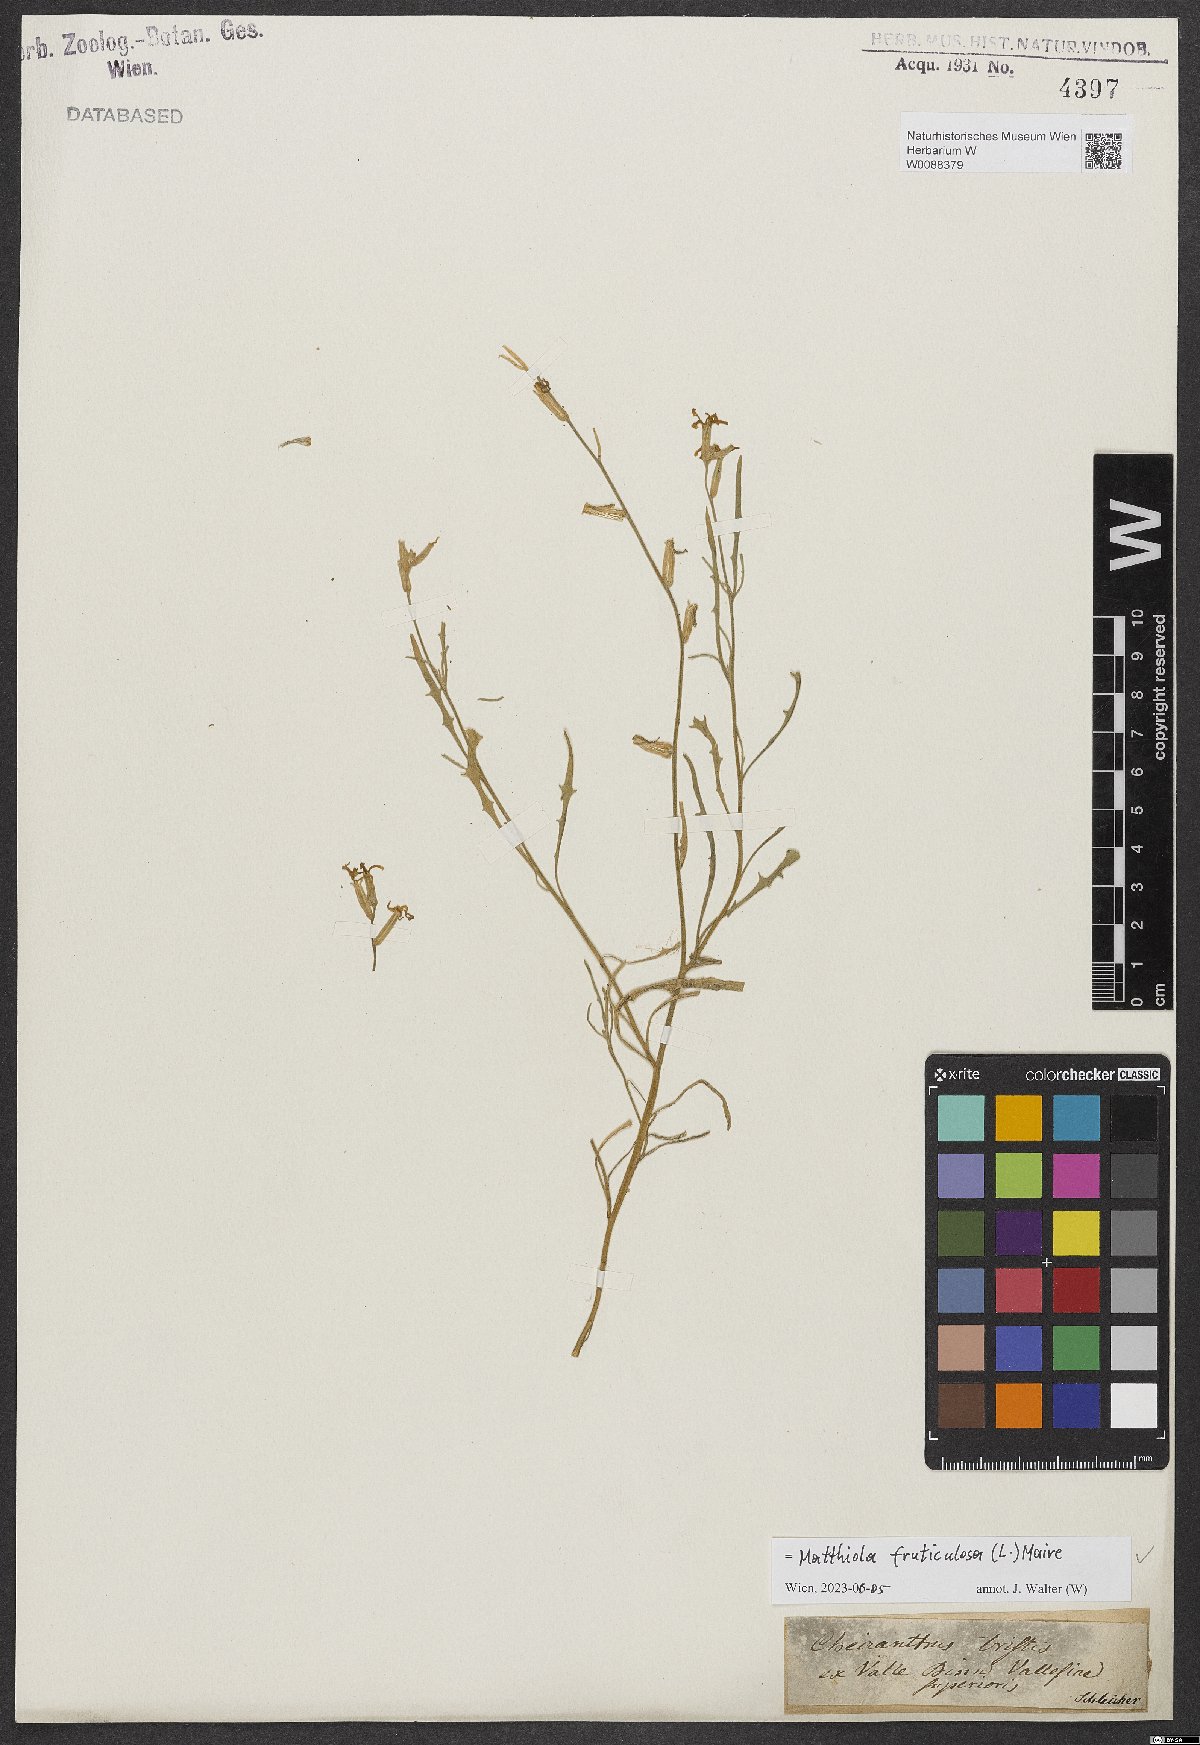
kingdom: Plantae
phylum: Tracheophyta
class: Magnoliopsida
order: Brassicales
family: Brassicaceae
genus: Matthiola
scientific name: Matthiola fruticulosa
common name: Sad stock
